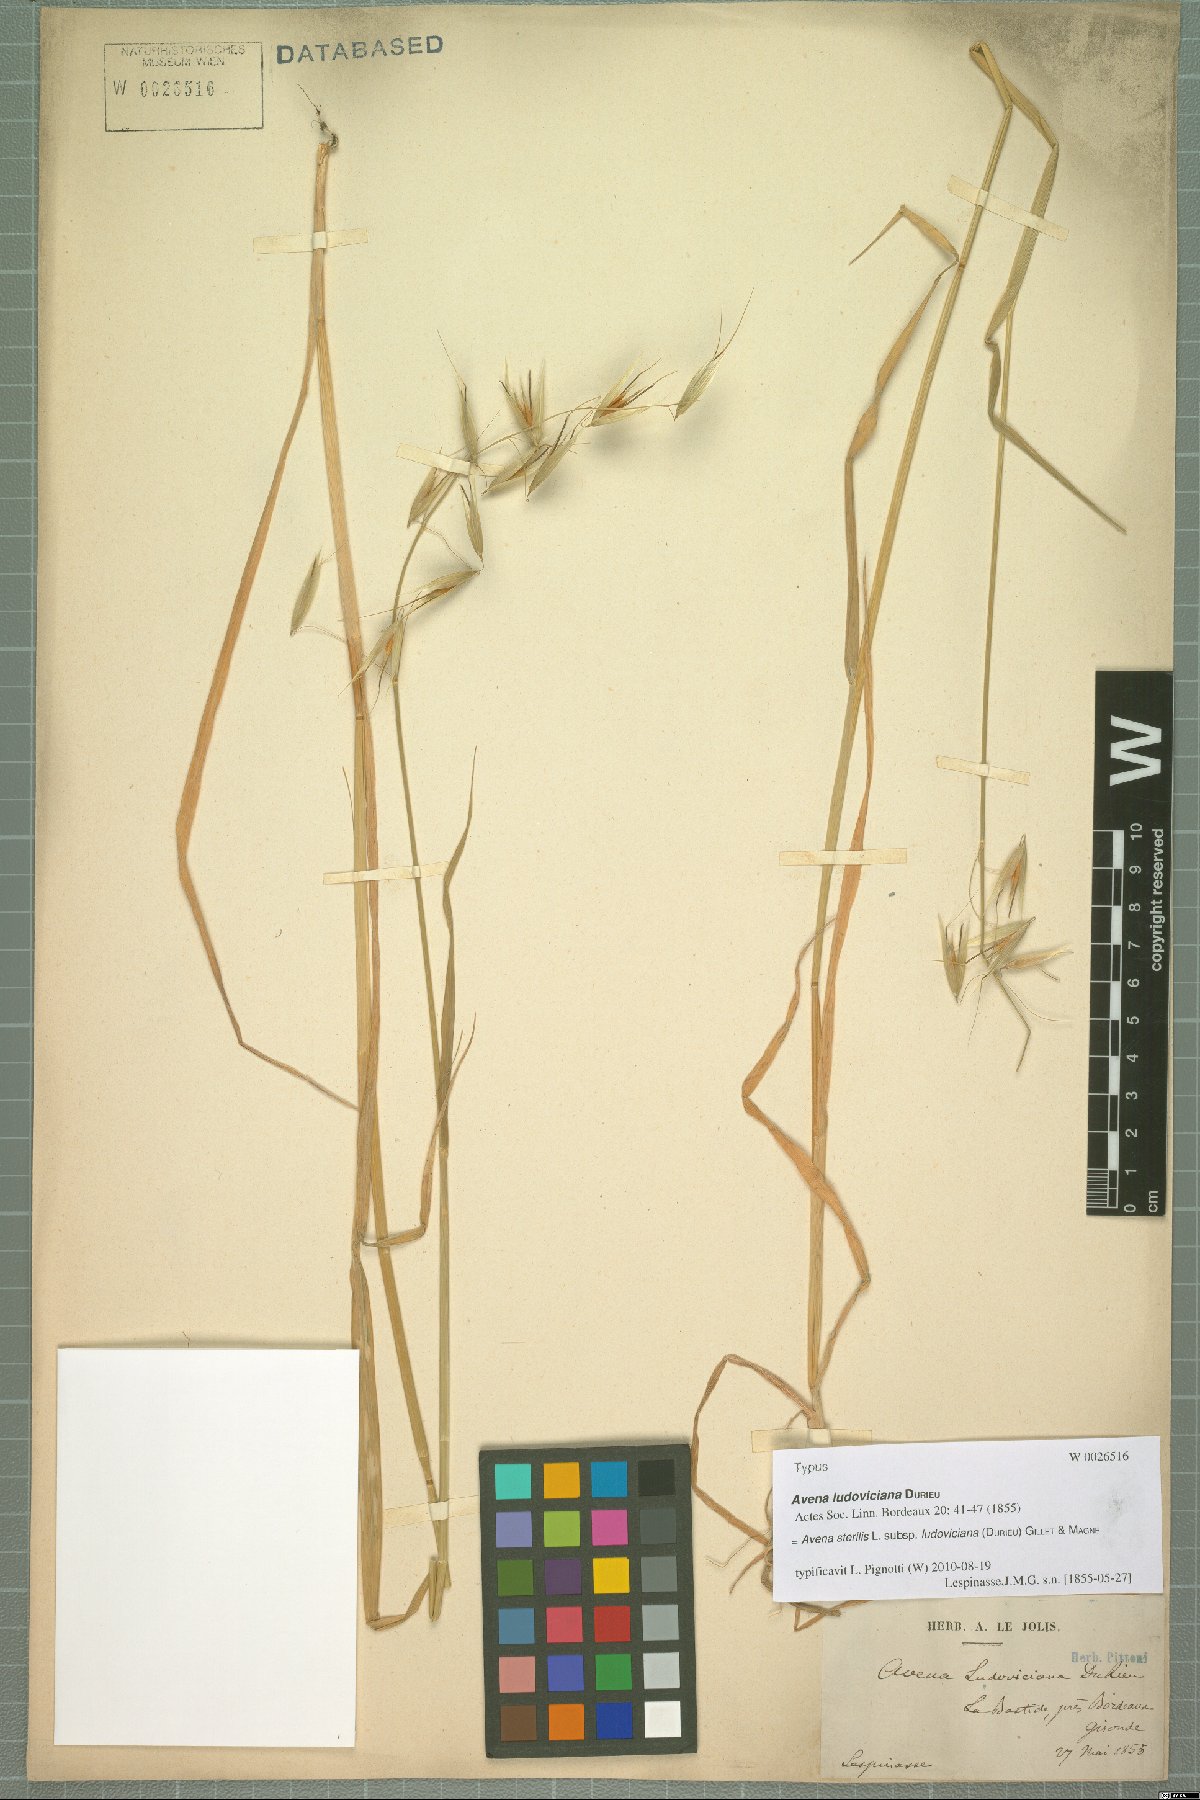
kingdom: Plantae
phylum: Tracheophyta
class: Liliopsida
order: Poales
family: Poaceae
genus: Avena
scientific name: Avena sterilis
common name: Animated oat
